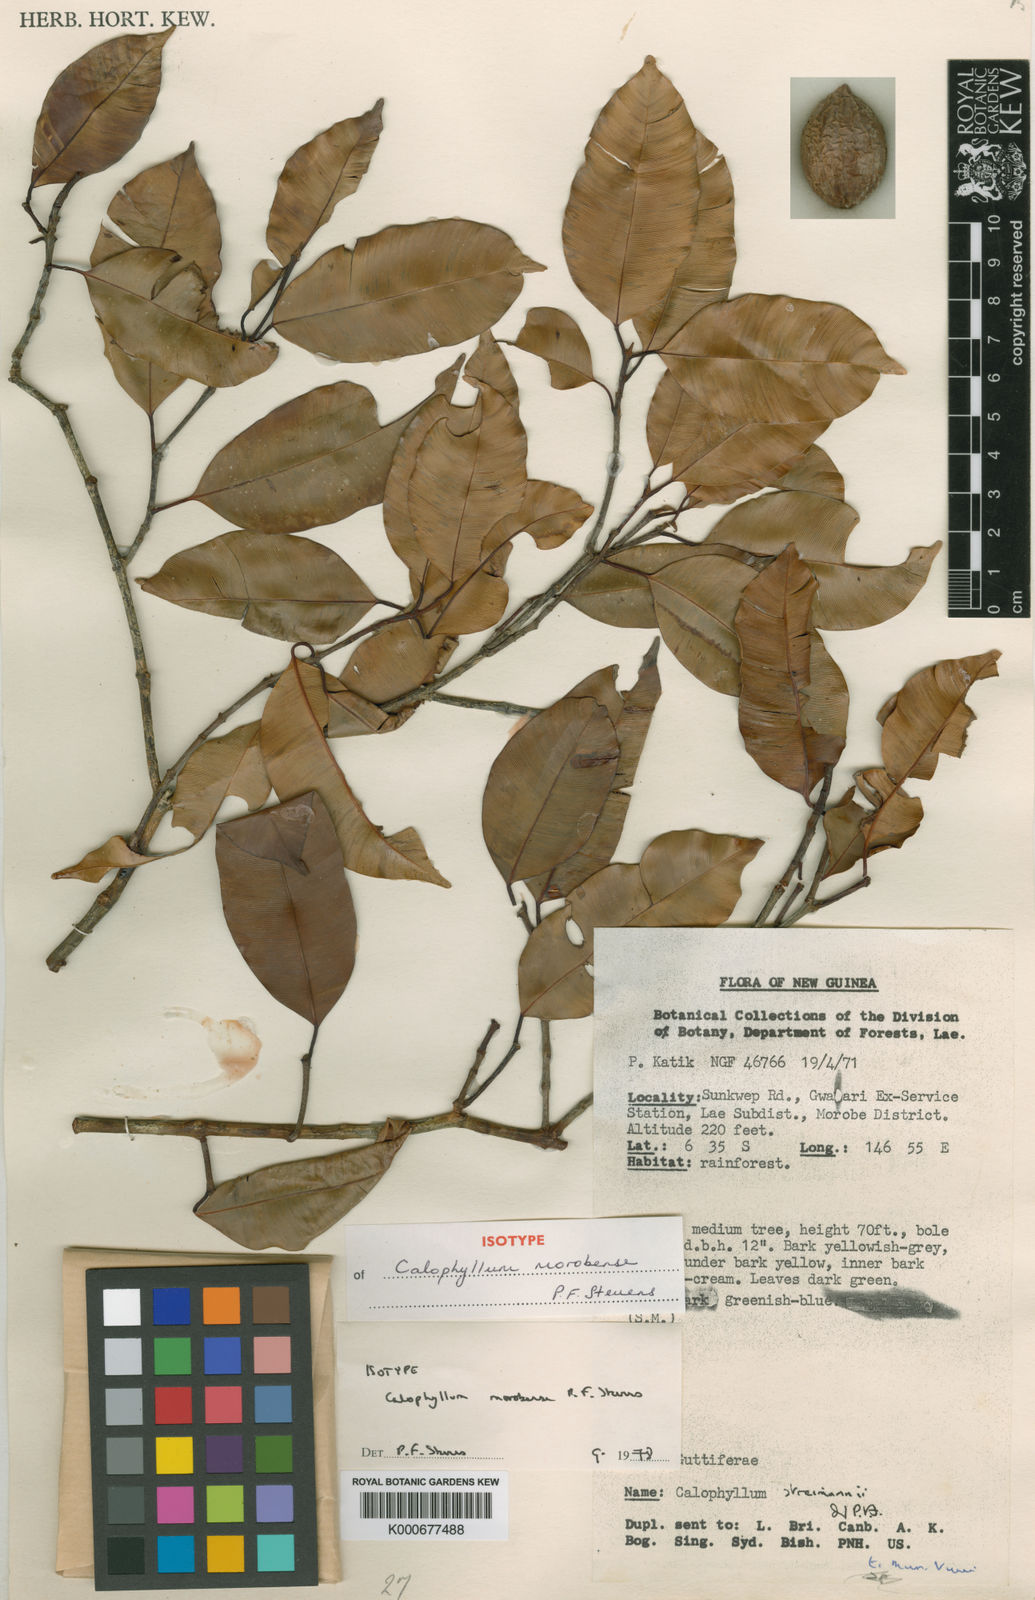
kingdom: Plantae
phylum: Tracheophyta
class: Magnoliopsida
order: Malpighiales
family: Calophyllaceae
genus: Calophyllum
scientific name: Calophyllum morobensis
